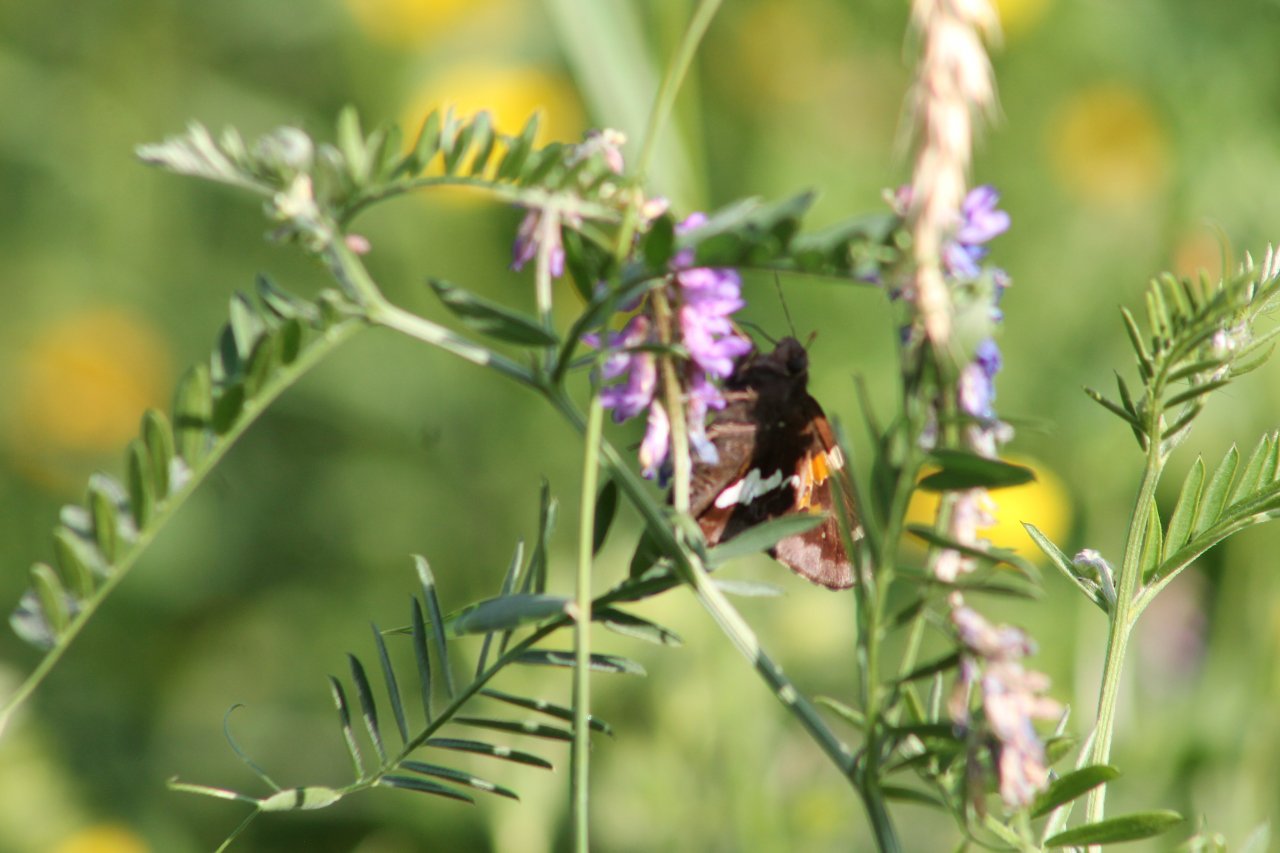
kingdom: Animalia
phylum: Arthropoda
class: Insecta
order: Lepidoptera
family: Hesperiidae
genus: Epargyreus
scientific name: Epargyreus clarus
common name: Silver-spotted Skipper
